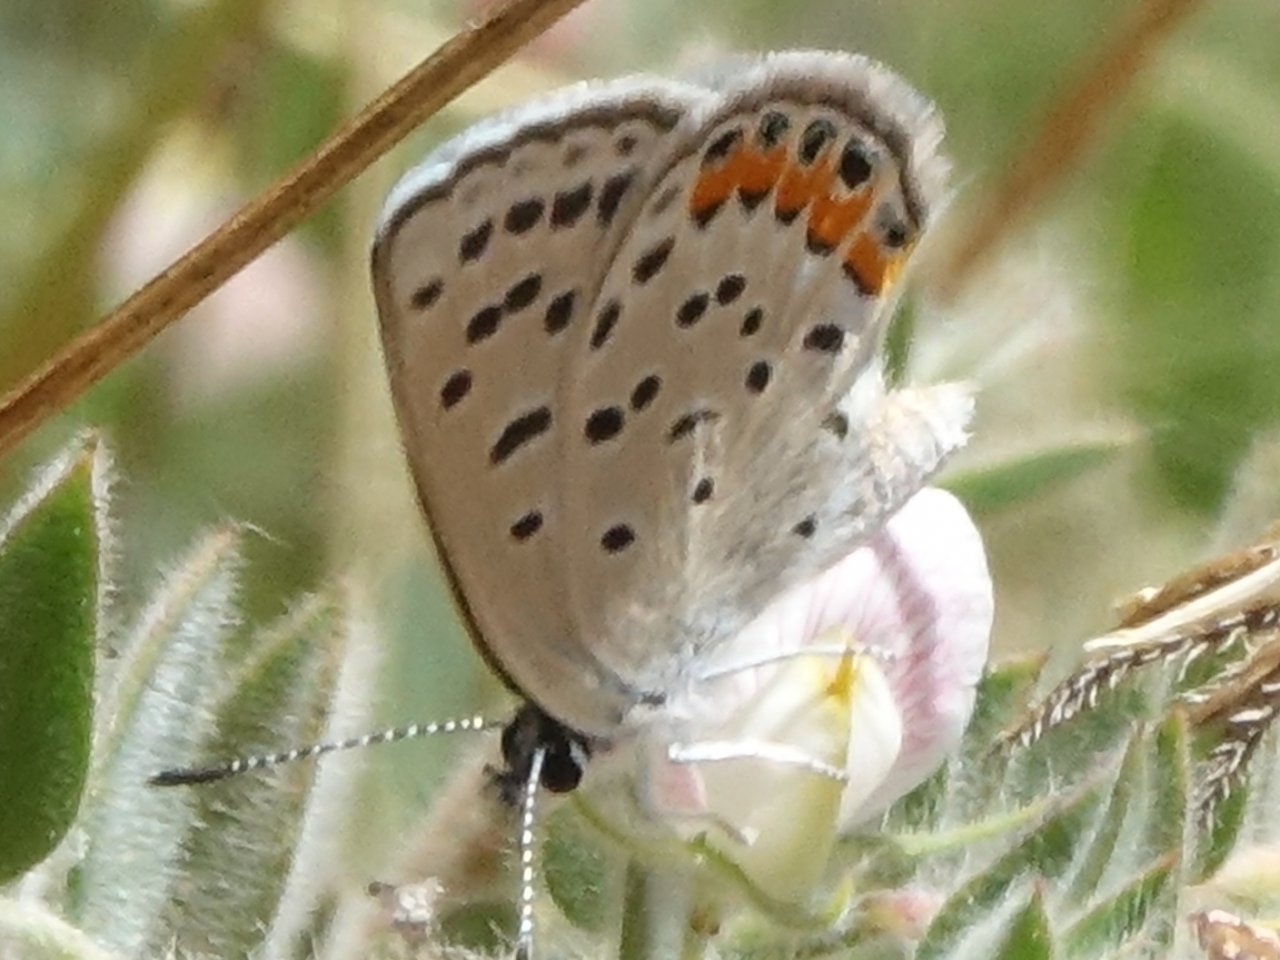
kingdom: Animalia
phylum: Arthropoda
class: Insecta
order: Lepidoptera
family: Lycaenidae
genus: Plebejus
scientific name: Plebejus acmon
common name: Acmon Blue
